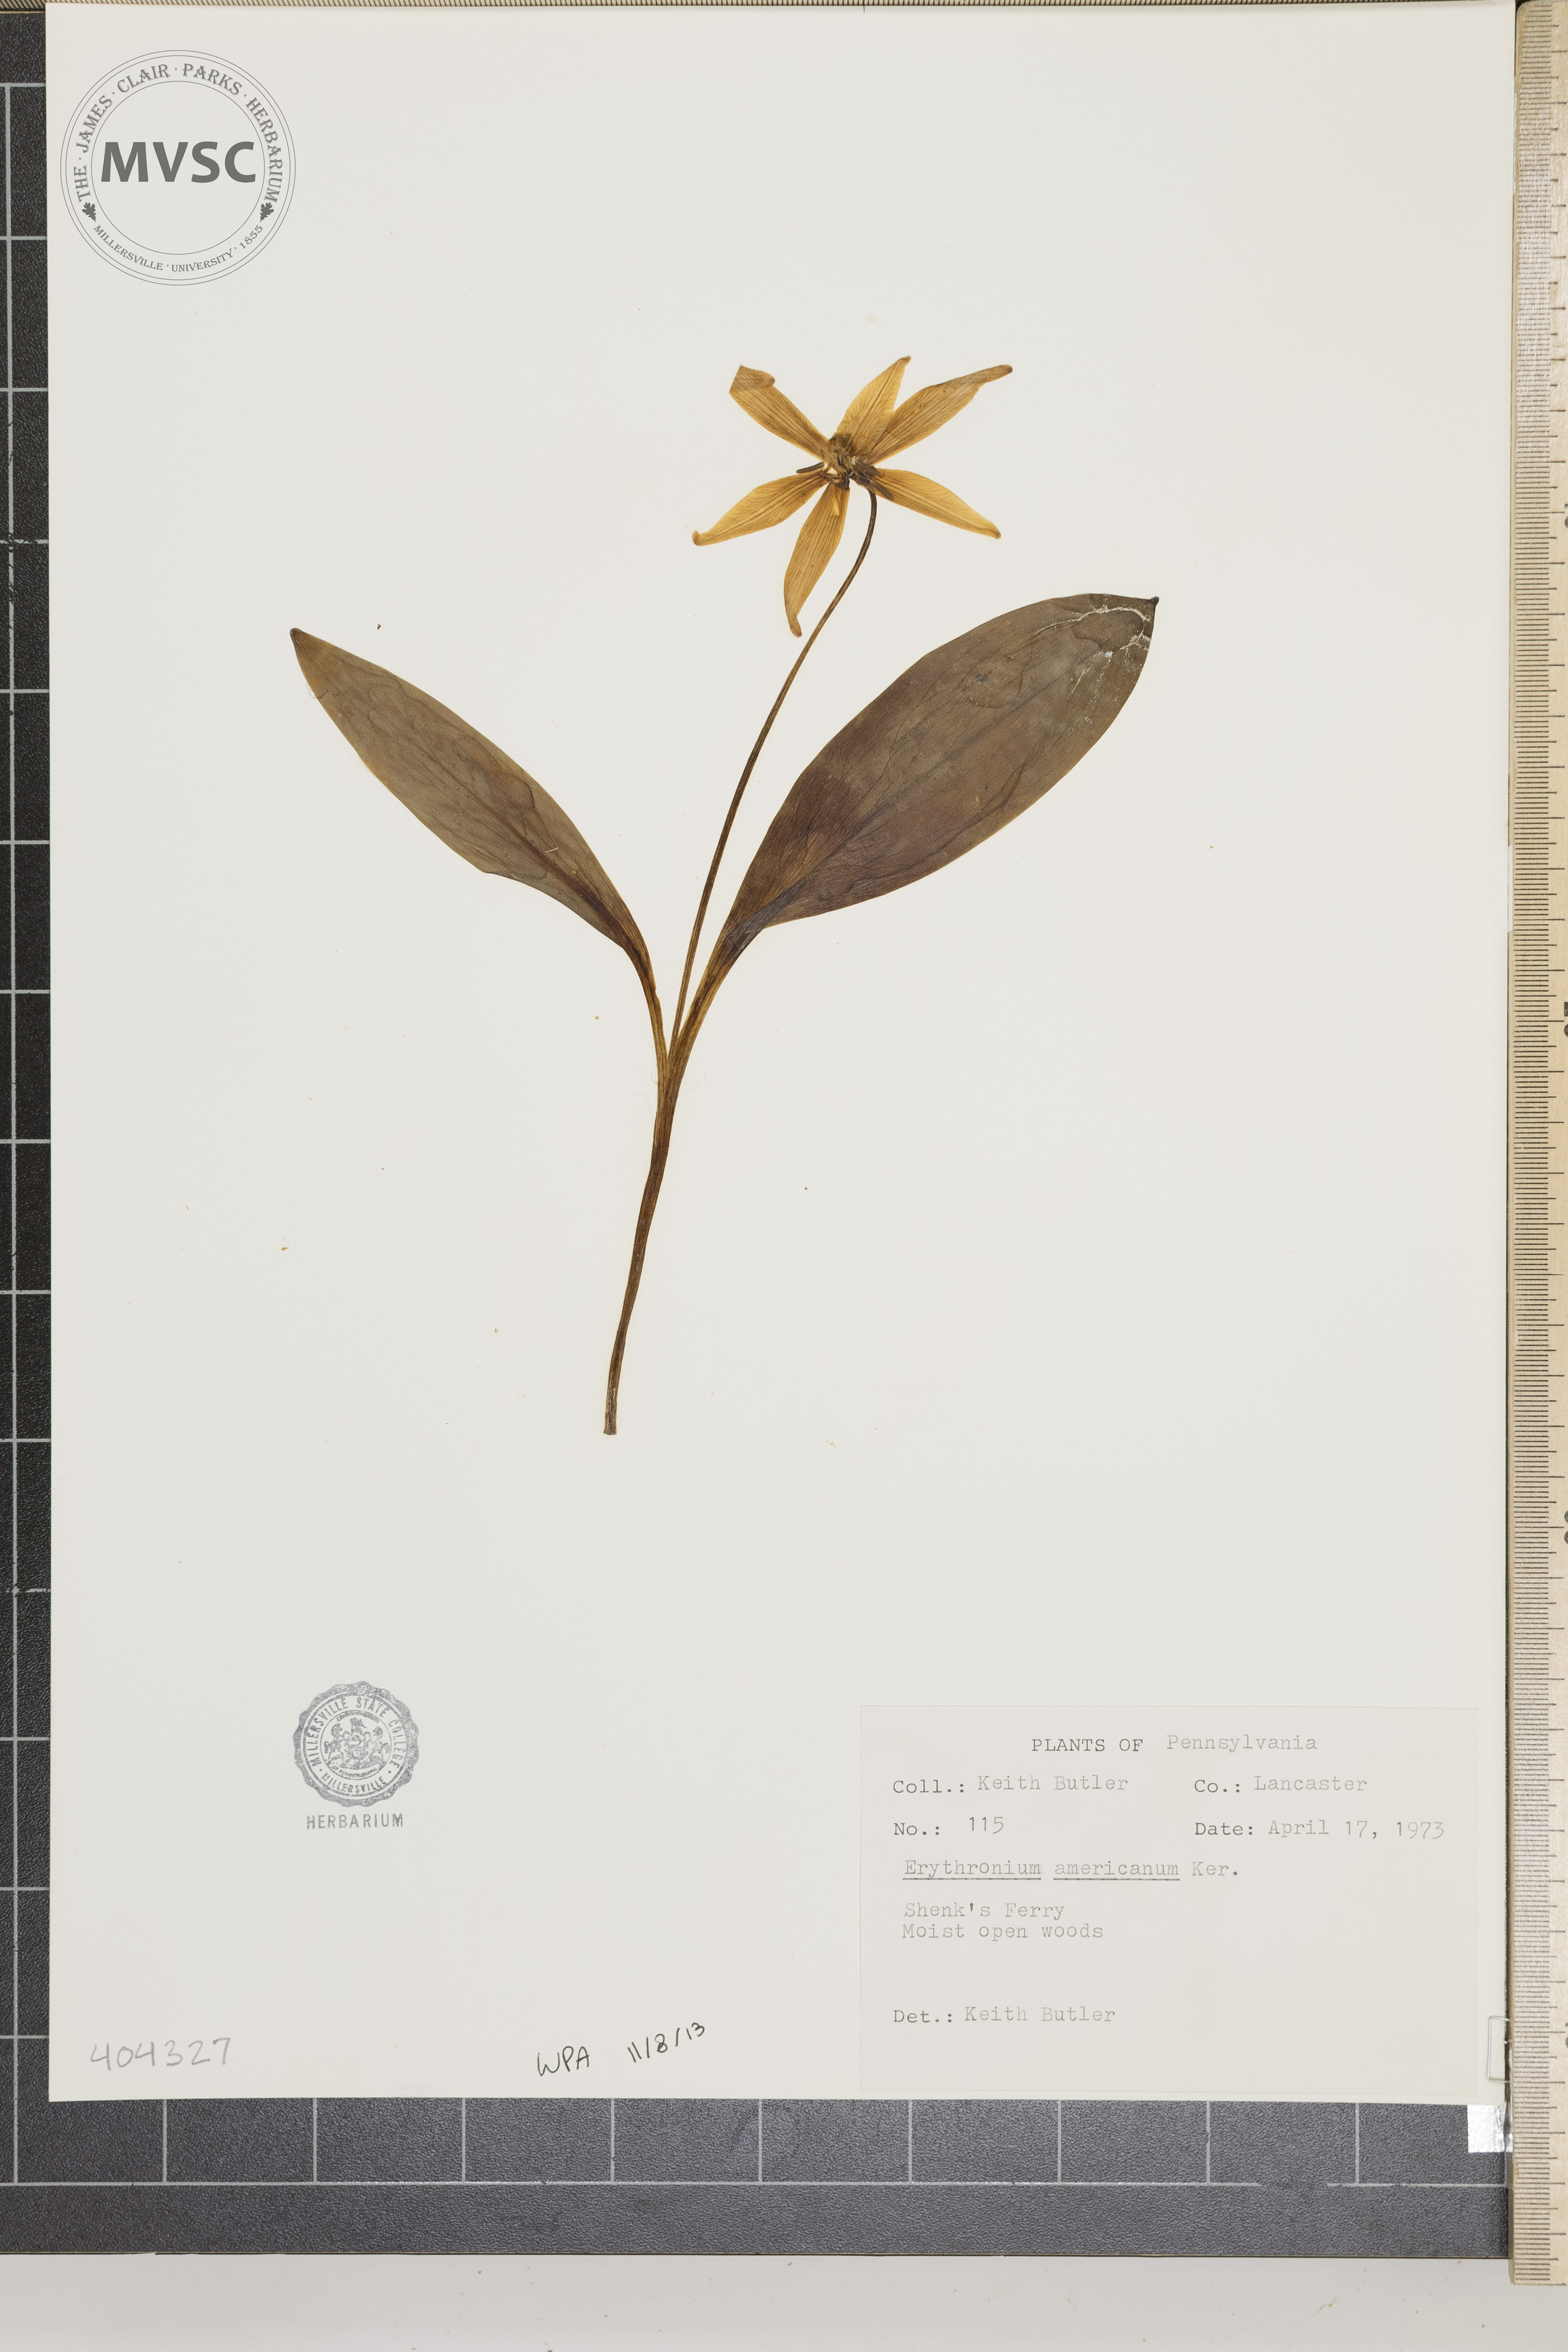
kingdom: Plantae
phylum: Tracheophyta
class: Liliopsida
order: Liliales
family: Liliaceae
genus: Erythronium
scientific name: Erythronium americanum
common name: Yellow adder's-tongue
